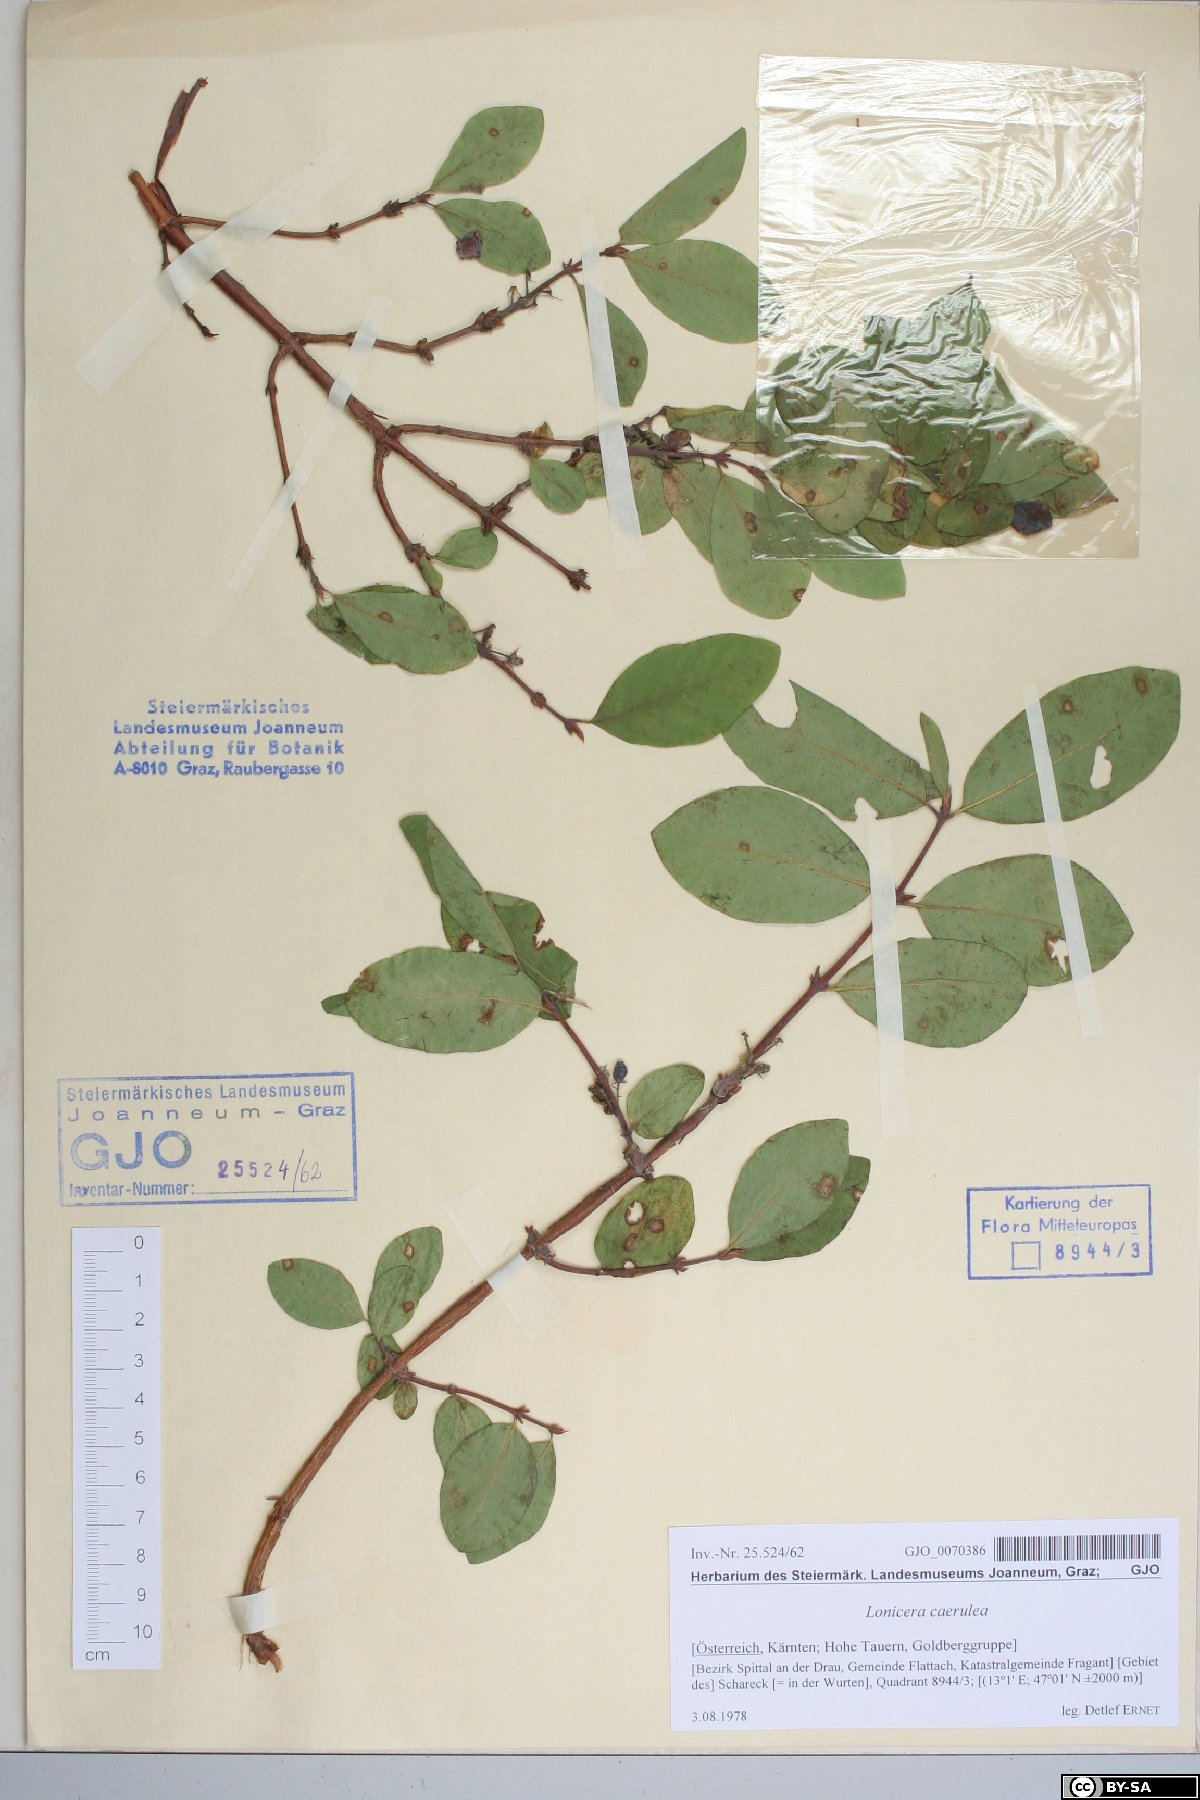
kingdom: Plantae
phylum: Tracheophyta
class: Magnoliopsida
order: Dipsacales
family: Caprifoliaceae
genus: Lonicera
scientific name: Lonicera caerulea
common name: Blue honeysuckle
